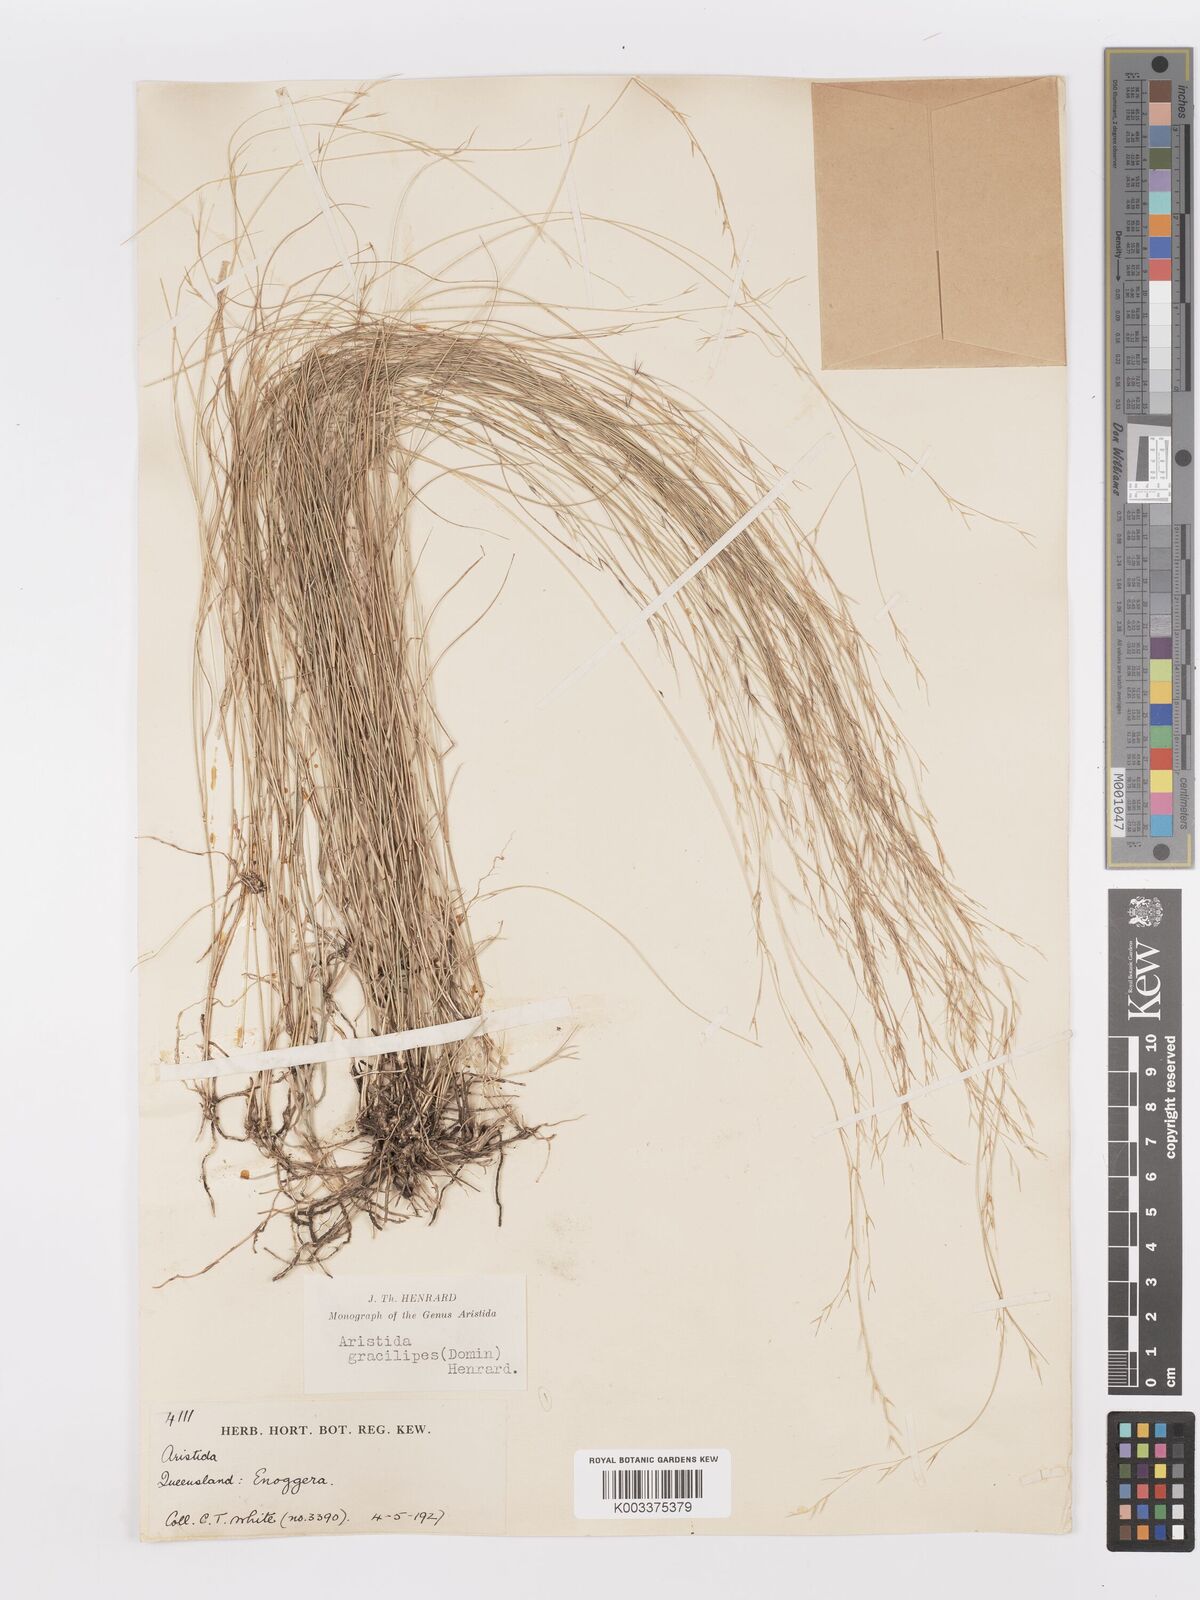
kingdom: Plantae
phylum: Tracheophyta
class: Liliopsida
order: Poales
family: Poaceae
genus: Aristida
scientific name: Aristida gracilipes
